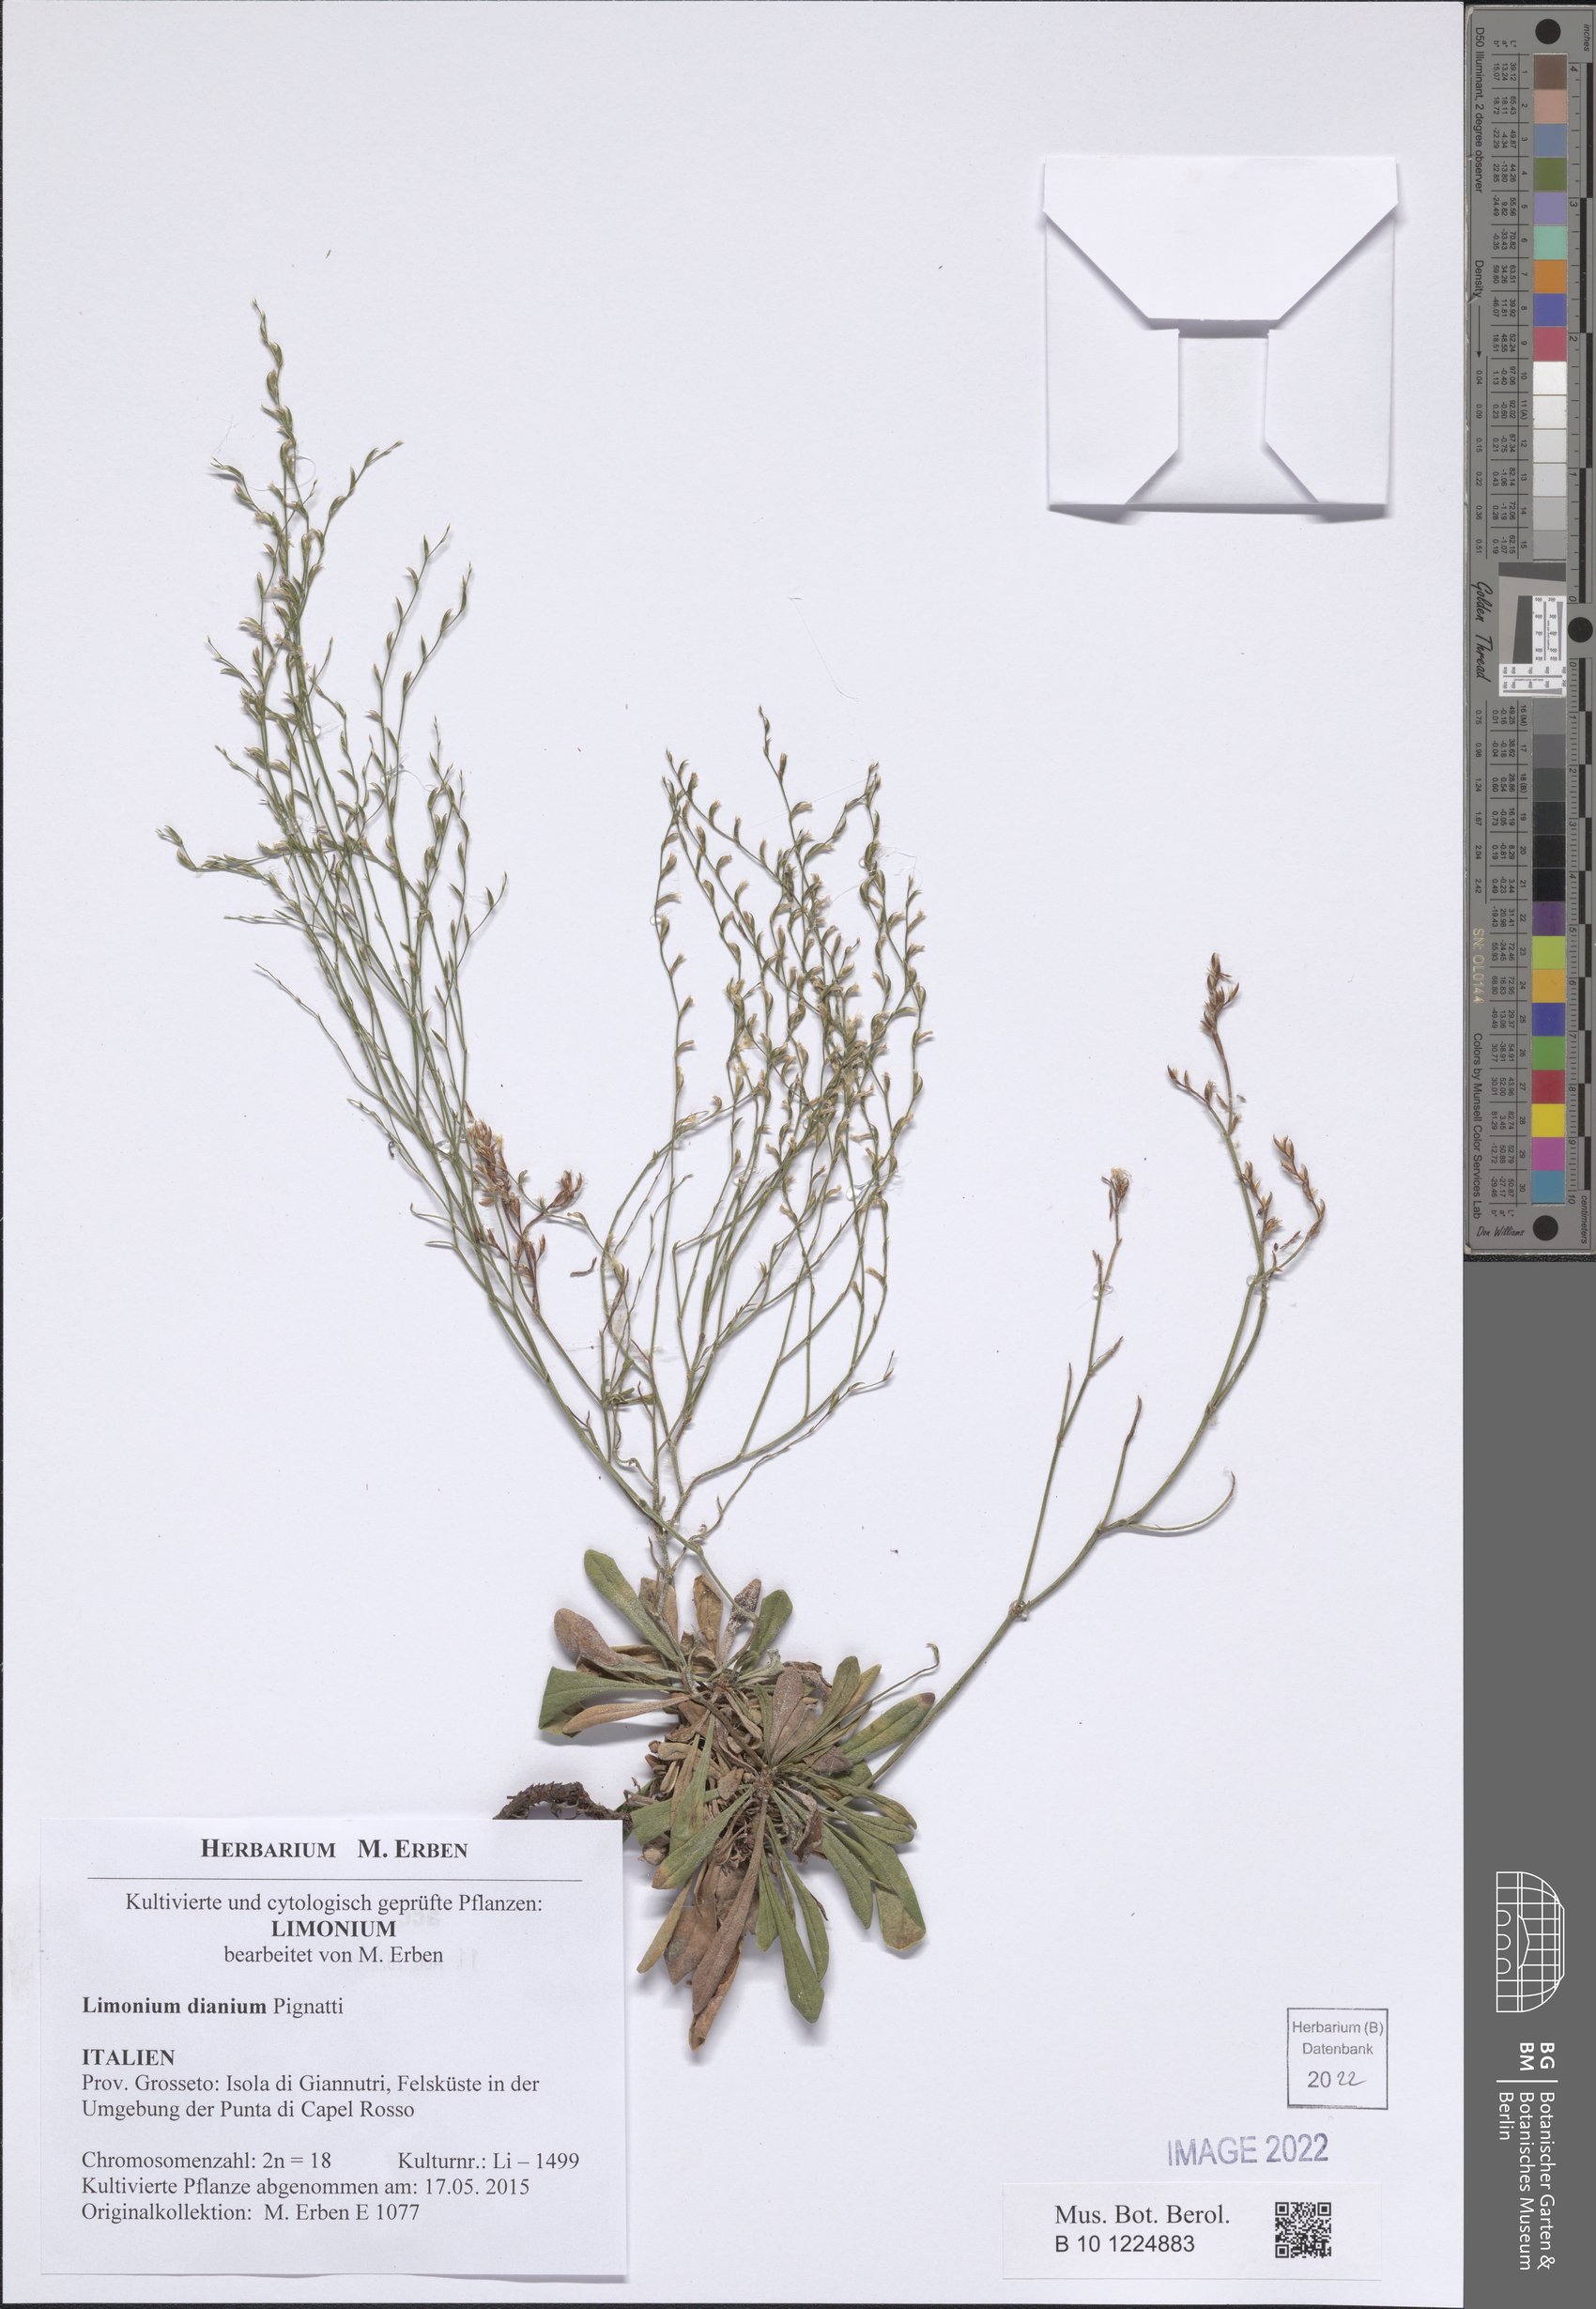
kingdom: Plantae
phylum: Tracheophyta
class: Magnoliopsida
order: Caryophyllales
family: Plumbaginaceae
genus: Limonium
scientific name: Limonium dianium
